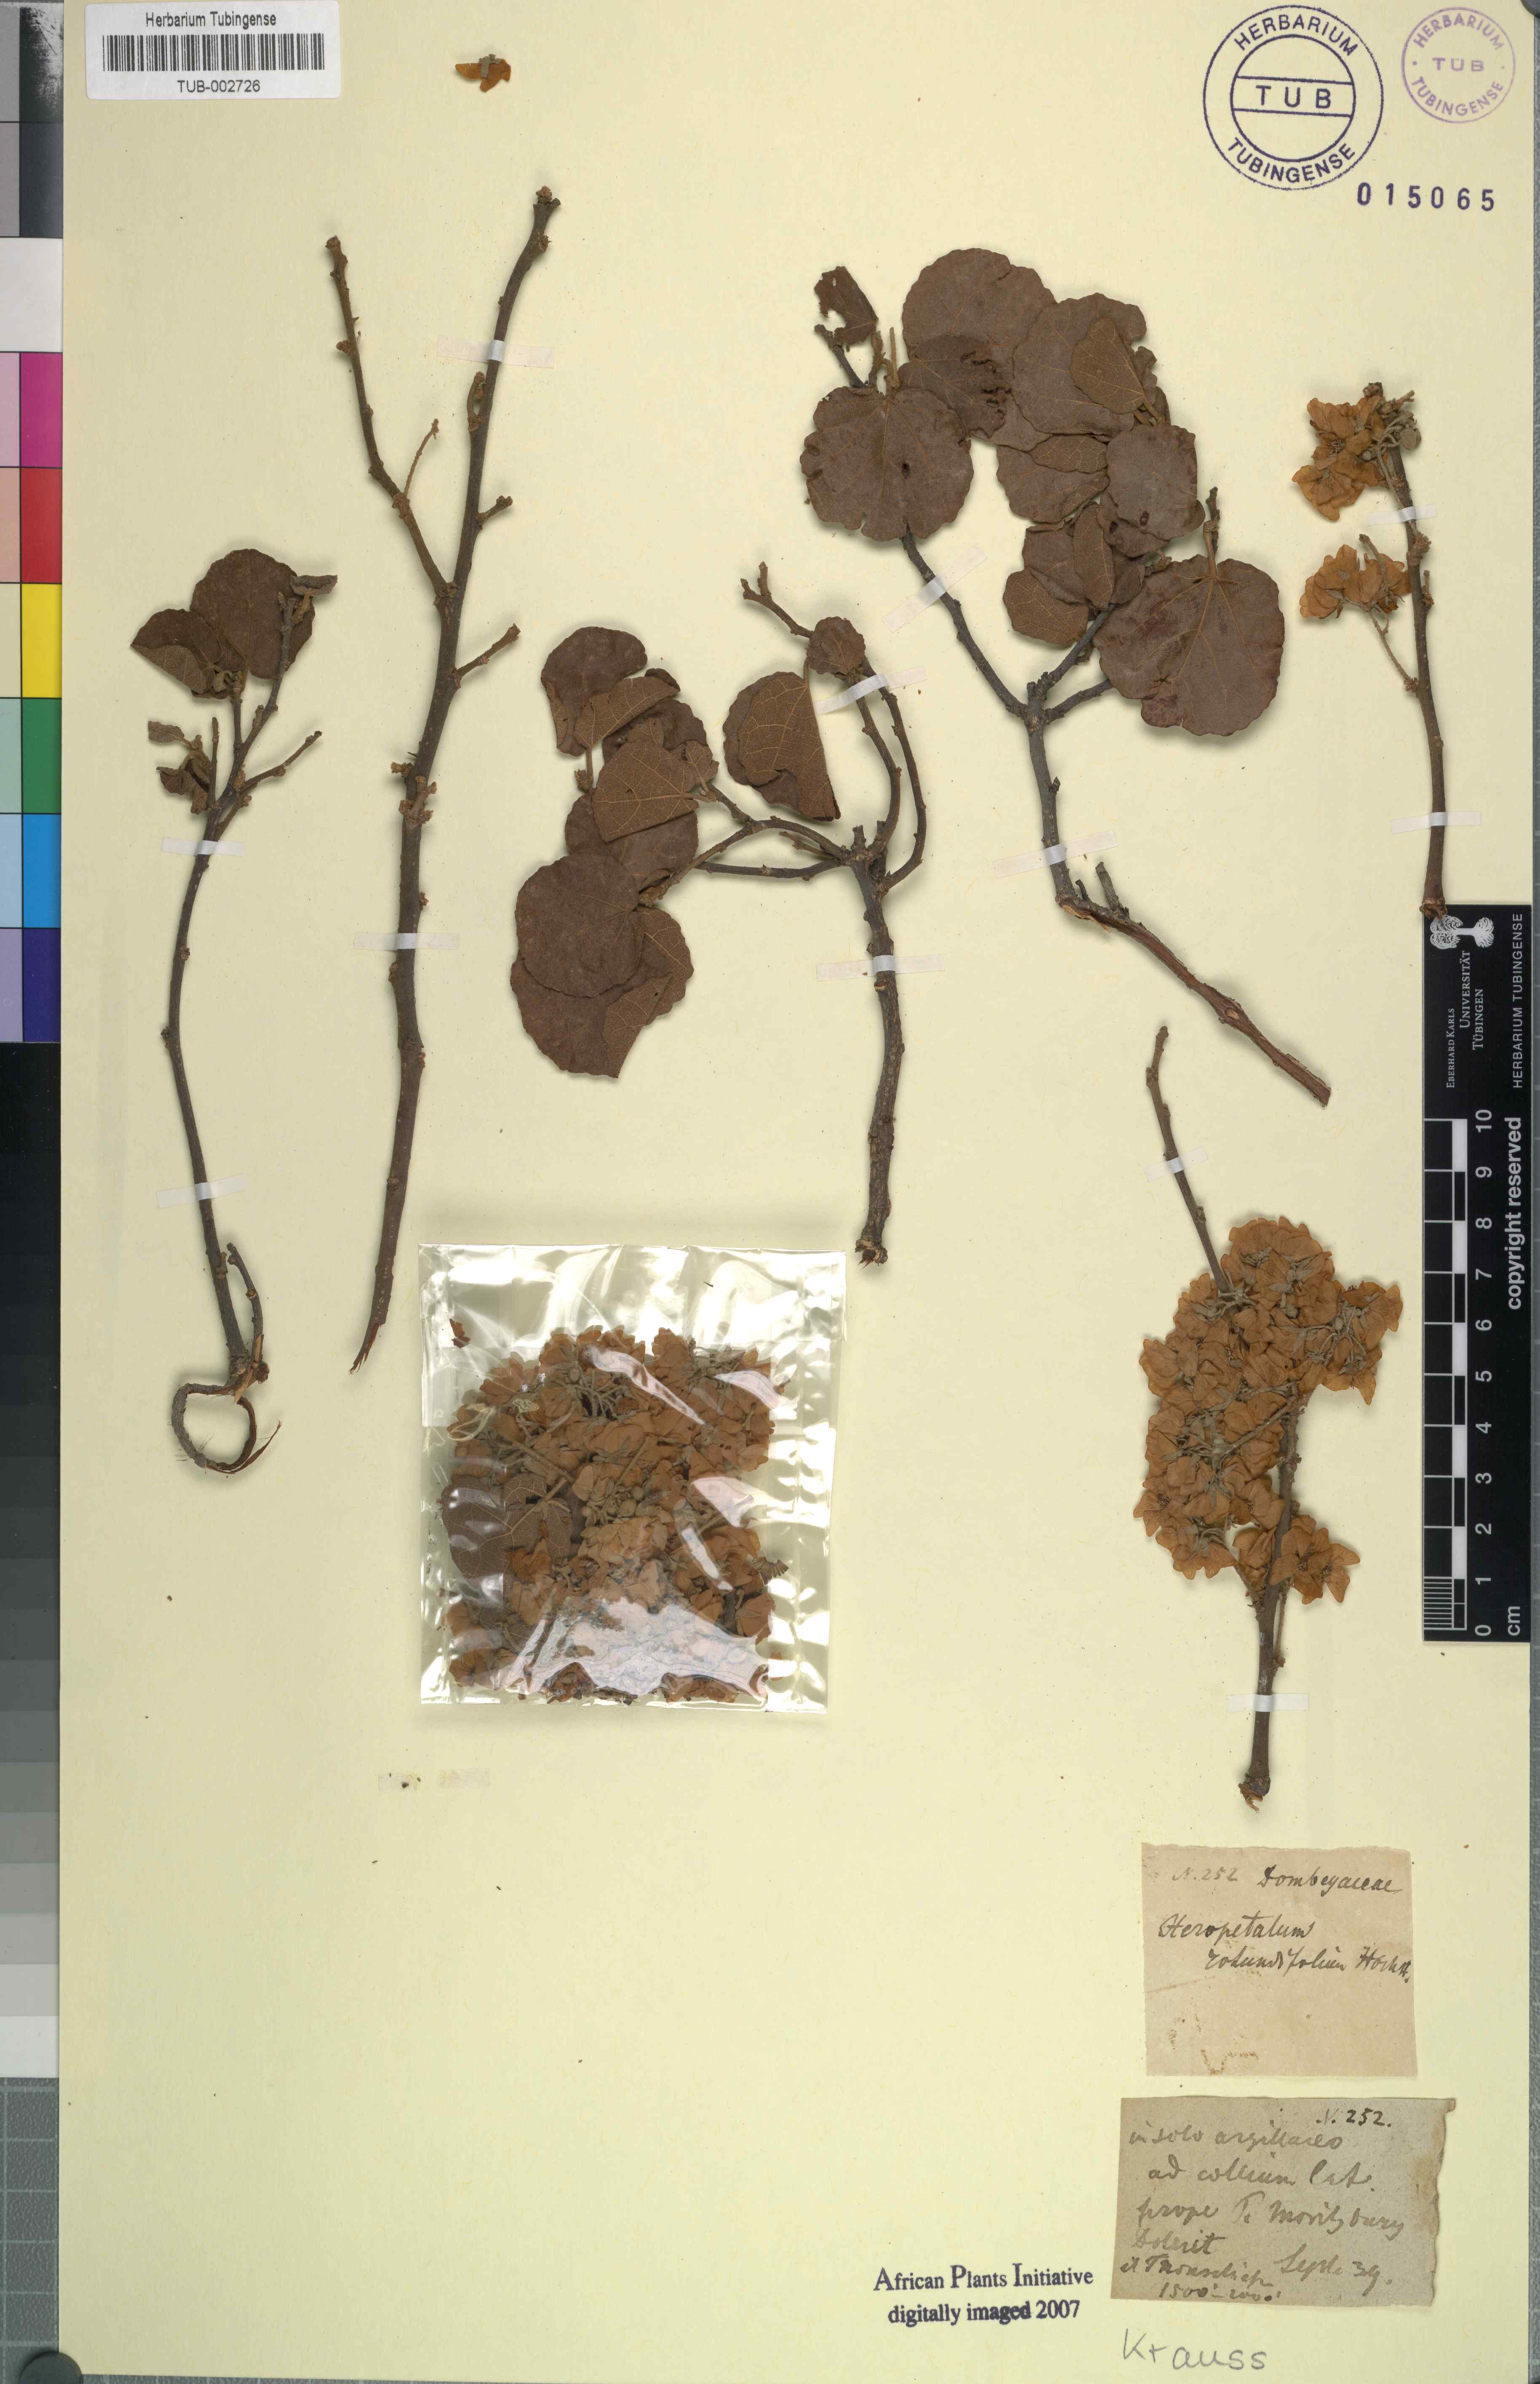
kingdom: Plantae
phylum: Tracheophyta
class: Magnoliopsida
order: Malvales
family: Malvaceae
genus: Dombeya
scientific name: Dombeya rotundifolia
